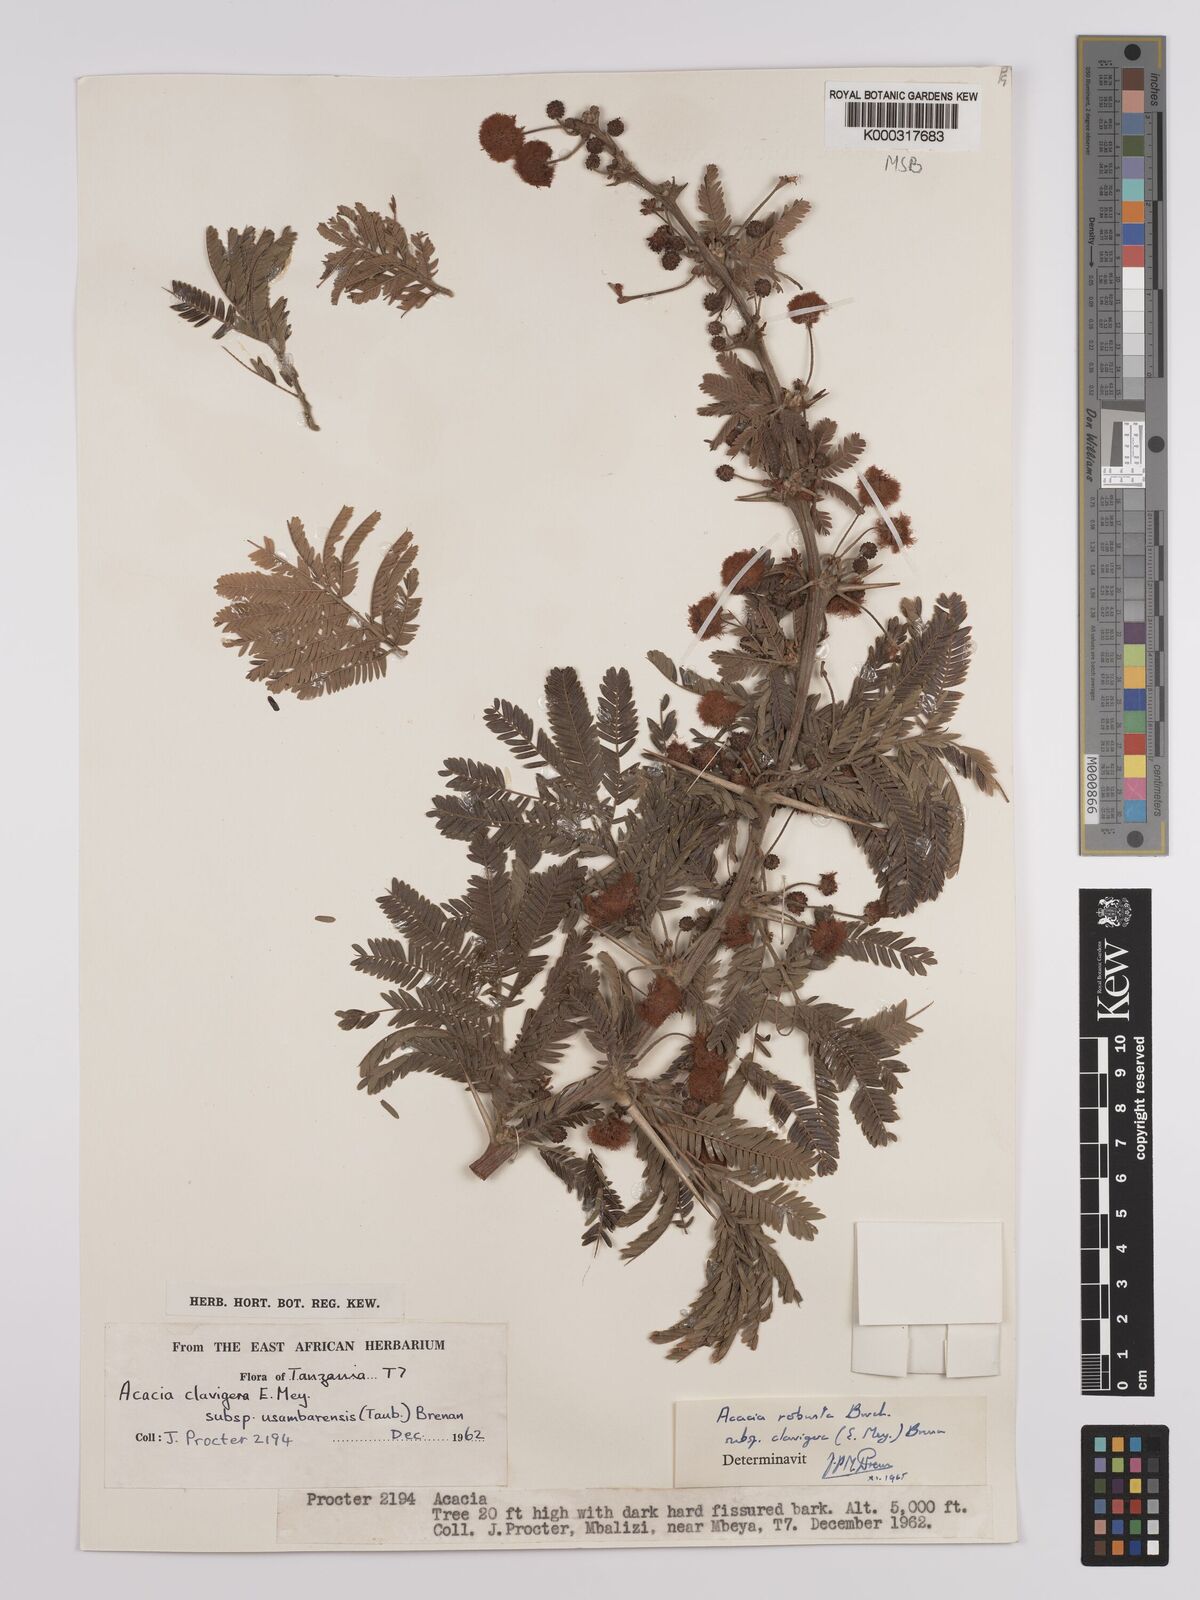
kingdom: Plantae
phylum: Tracheophyta
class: Magnoliopsida
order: Fabales
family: Fabaceae
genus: Vachellia
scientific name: Vachellia robusta
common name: Ankle thorn
